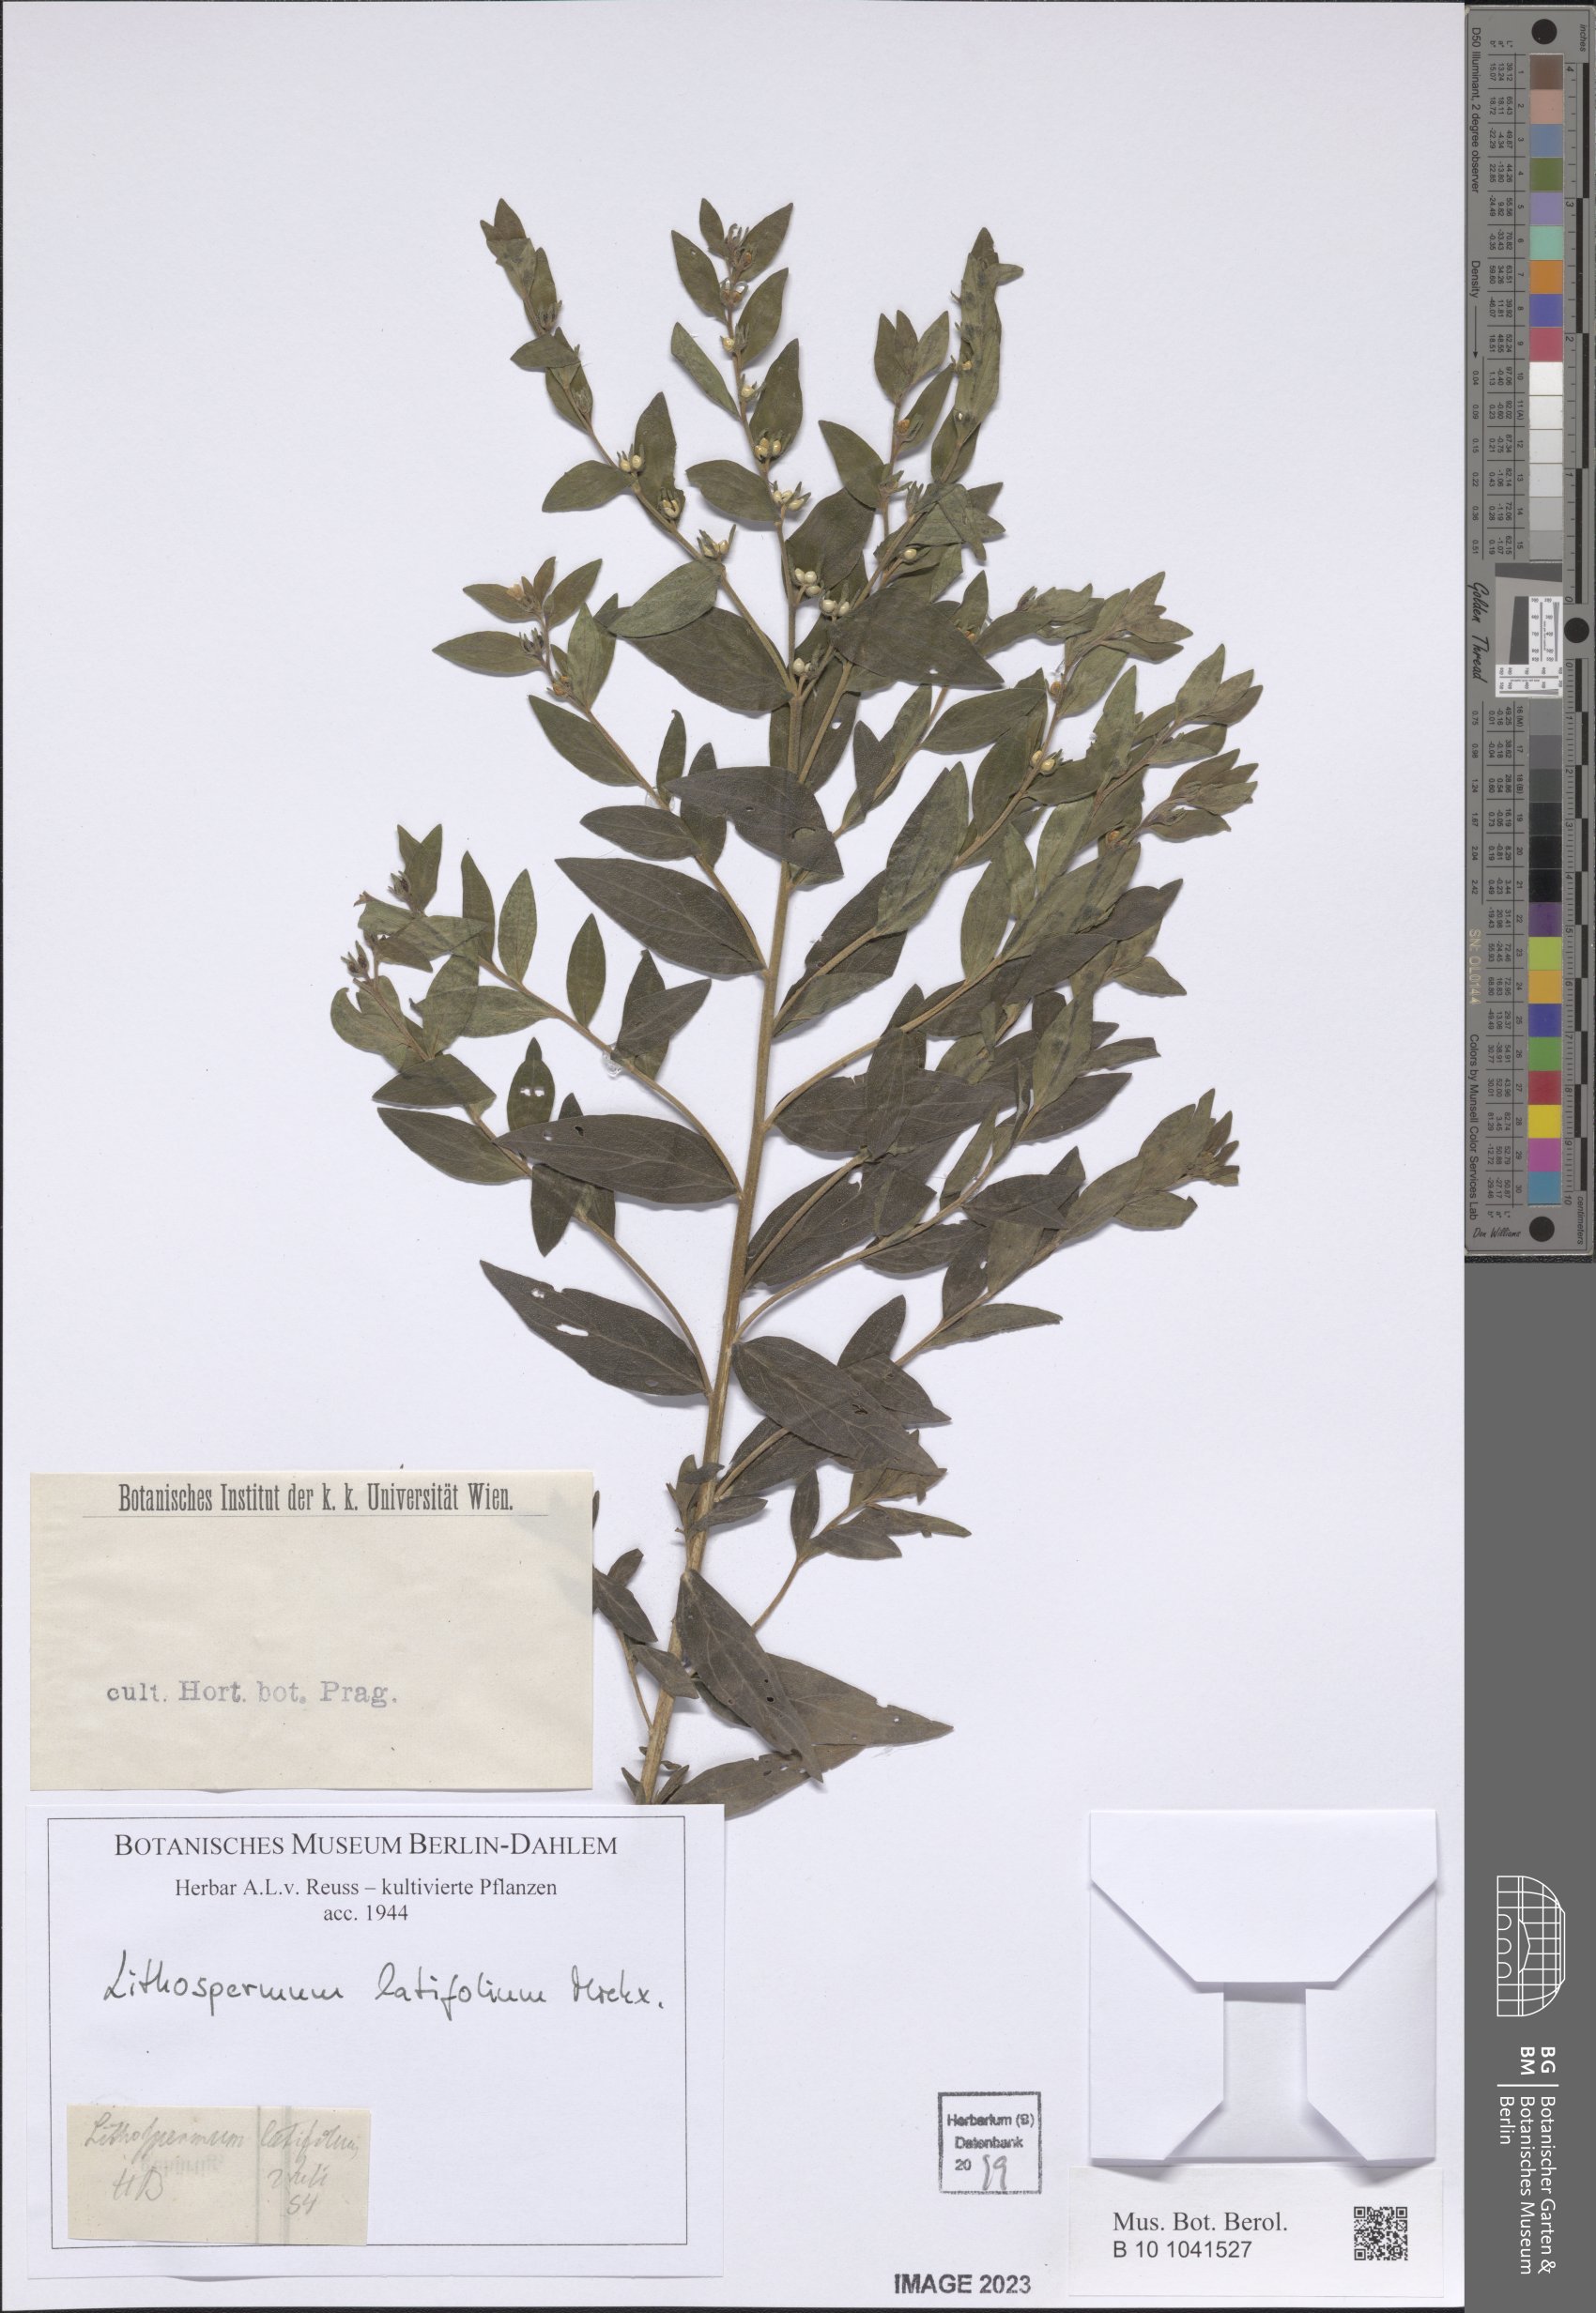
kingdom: Plantae
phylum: Tracheophyta
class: Magnoliopsida
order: Boraginales
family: Boraginaceae
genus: Lithospermum
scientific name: Lithospermum latifolium
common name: American gromwell
